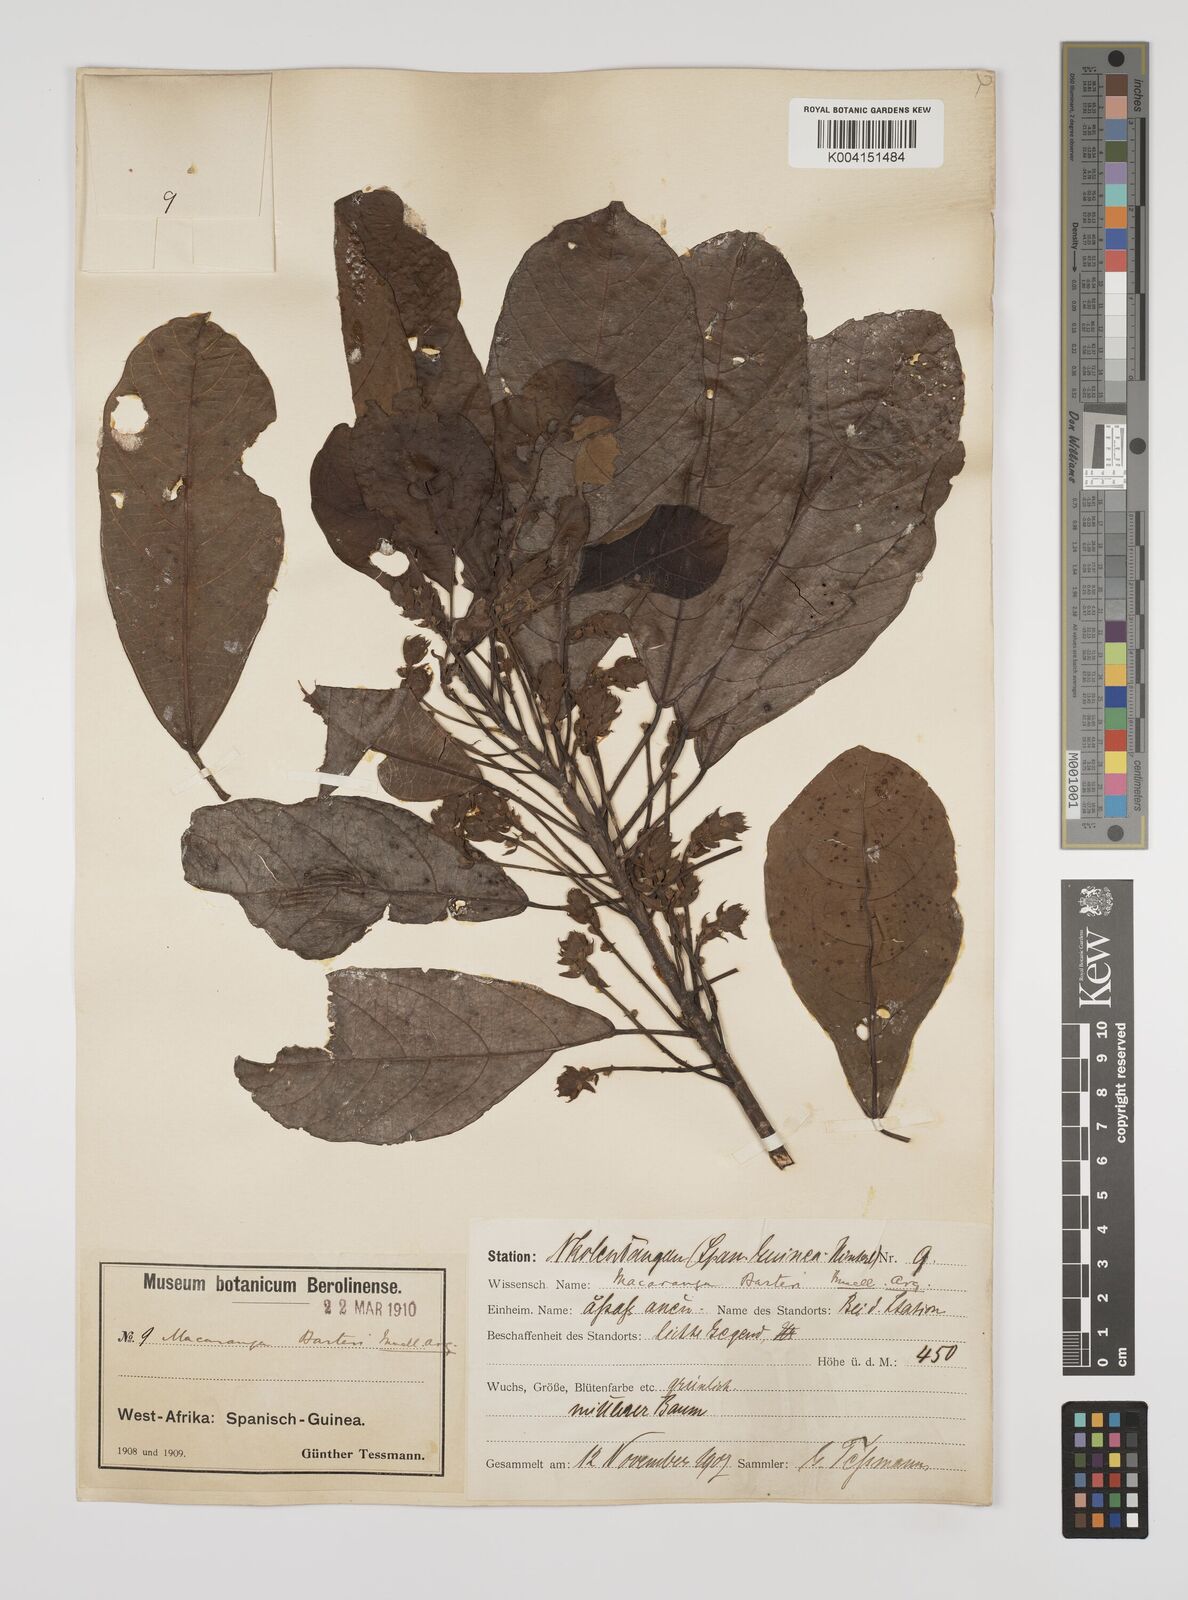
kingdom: Plantae
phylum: Tracheophyta
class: Magnoliopsida
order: Malpighiales
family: Euphorbiaceae
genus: Macaranga
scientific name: Macaranga barteri
